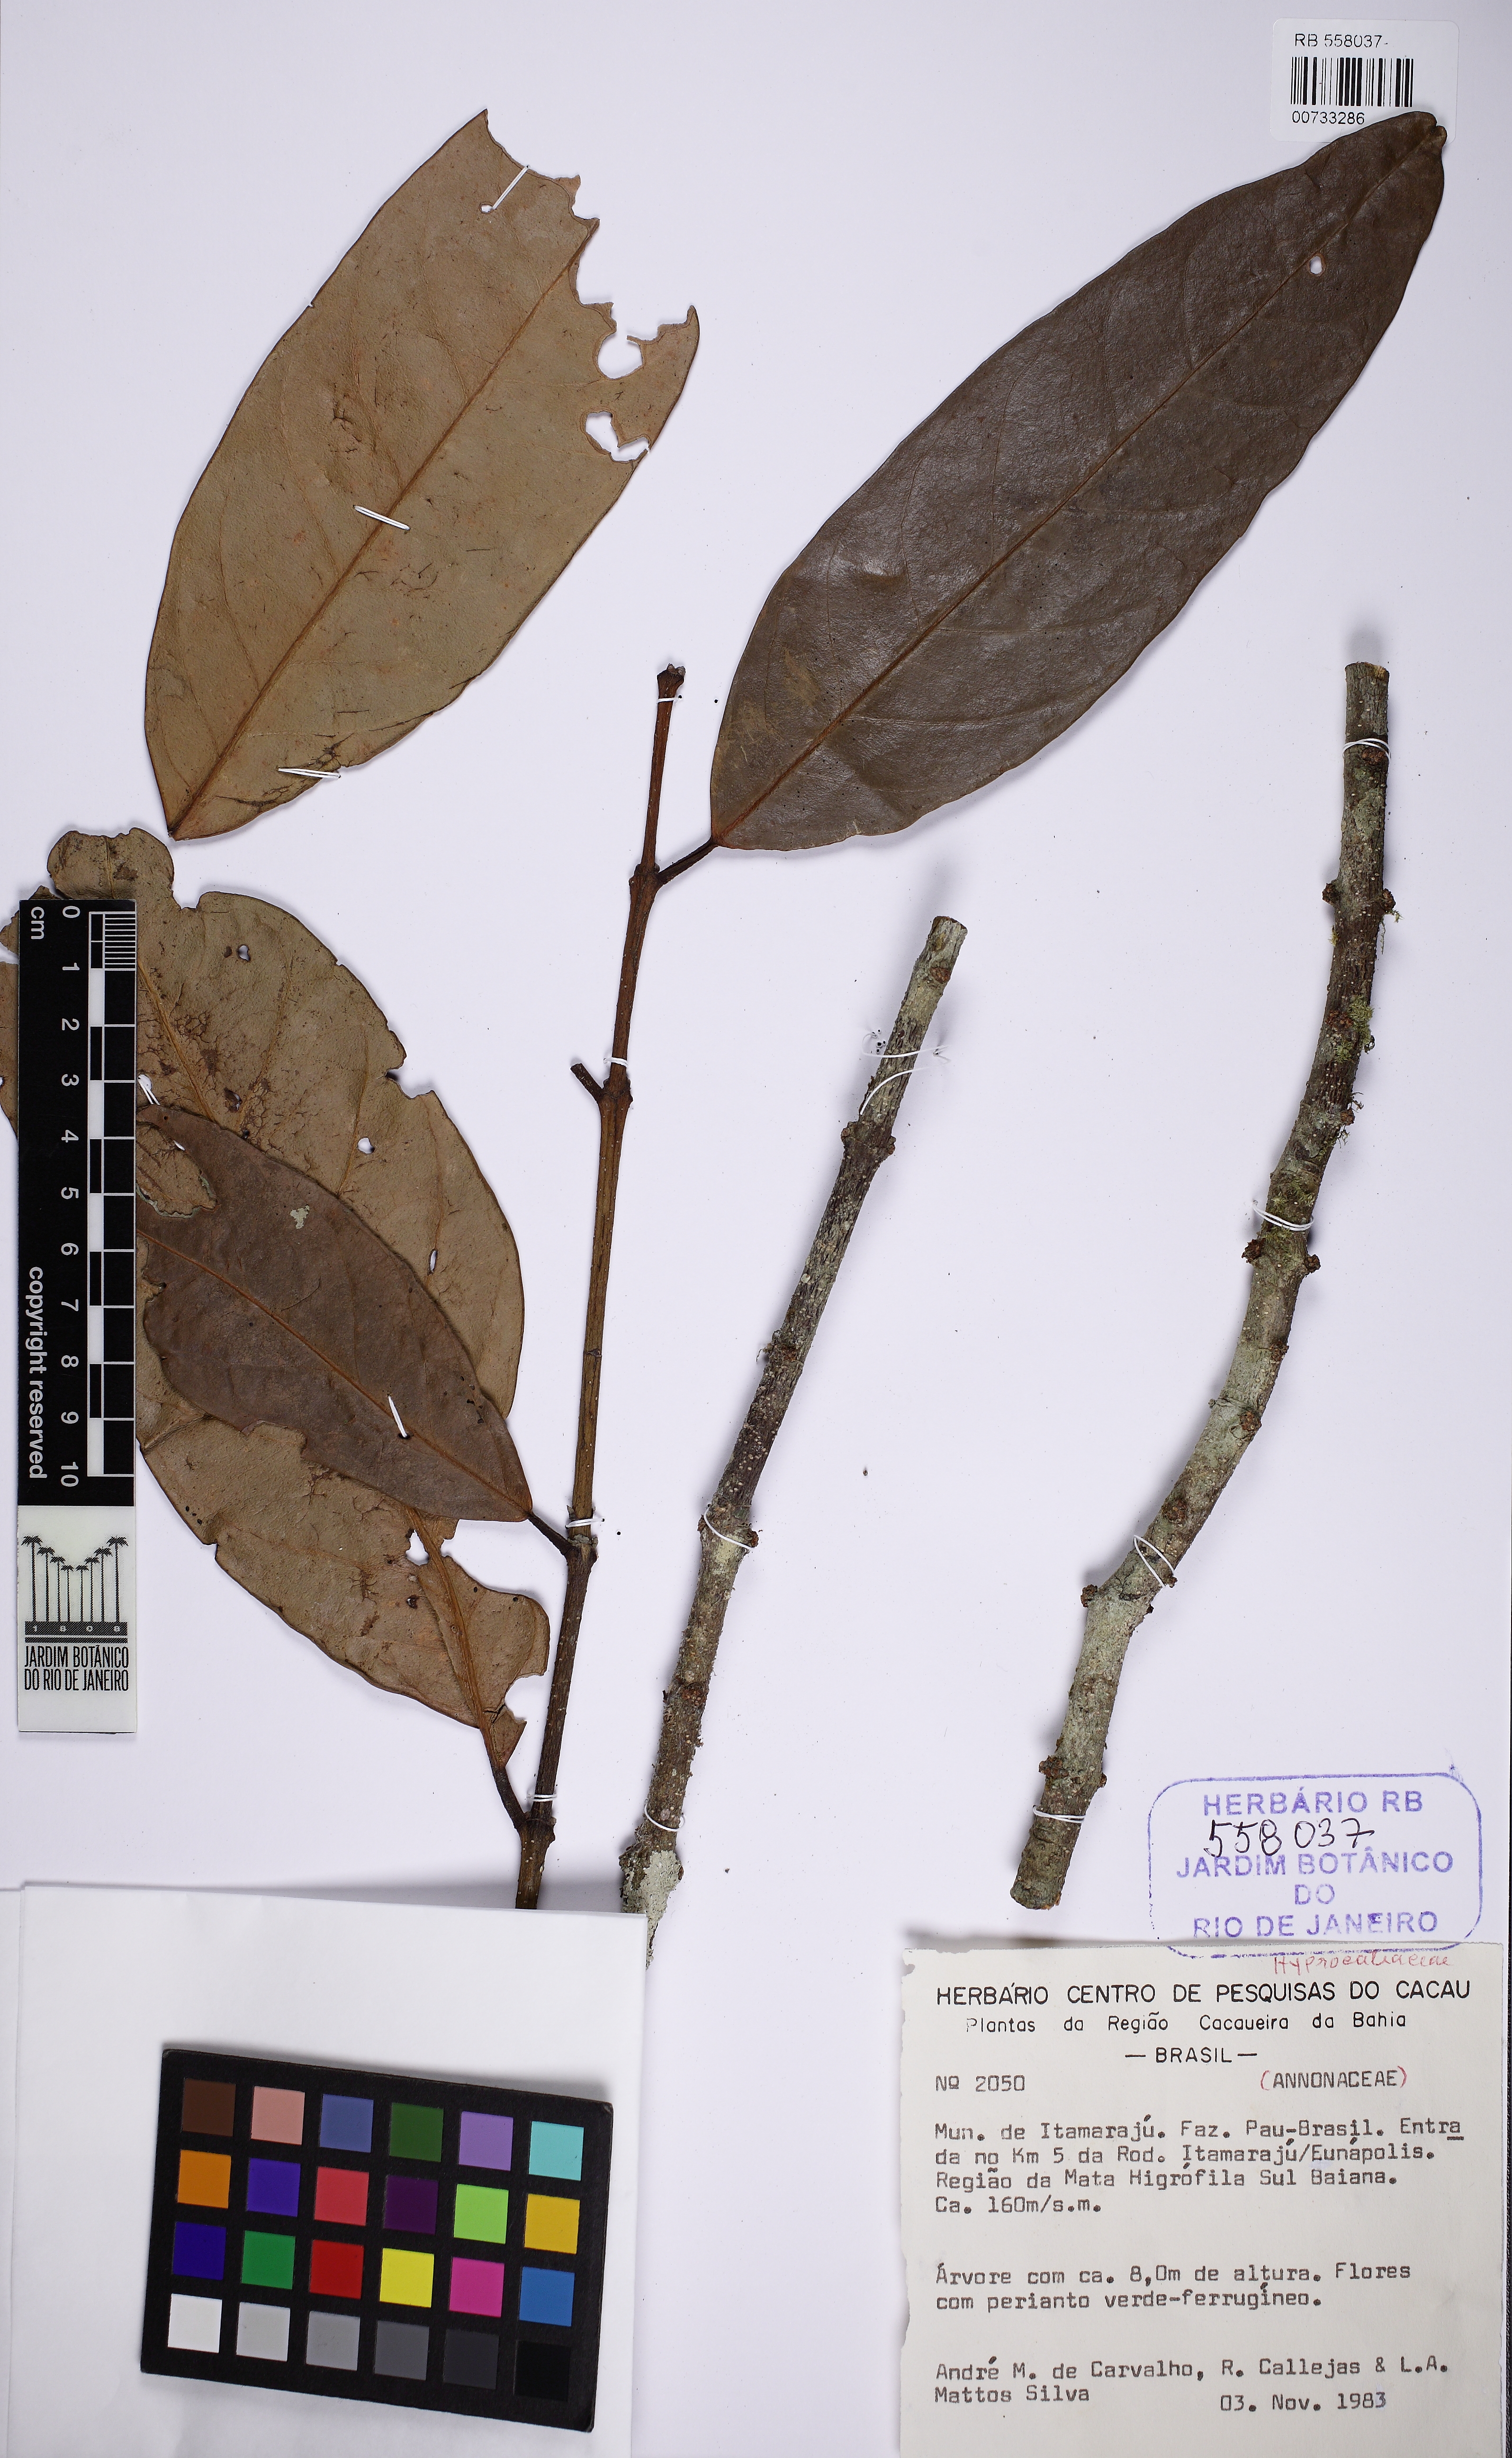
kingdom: Plantae
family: Hippocrateaceae
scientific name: Hippocrateaceae
